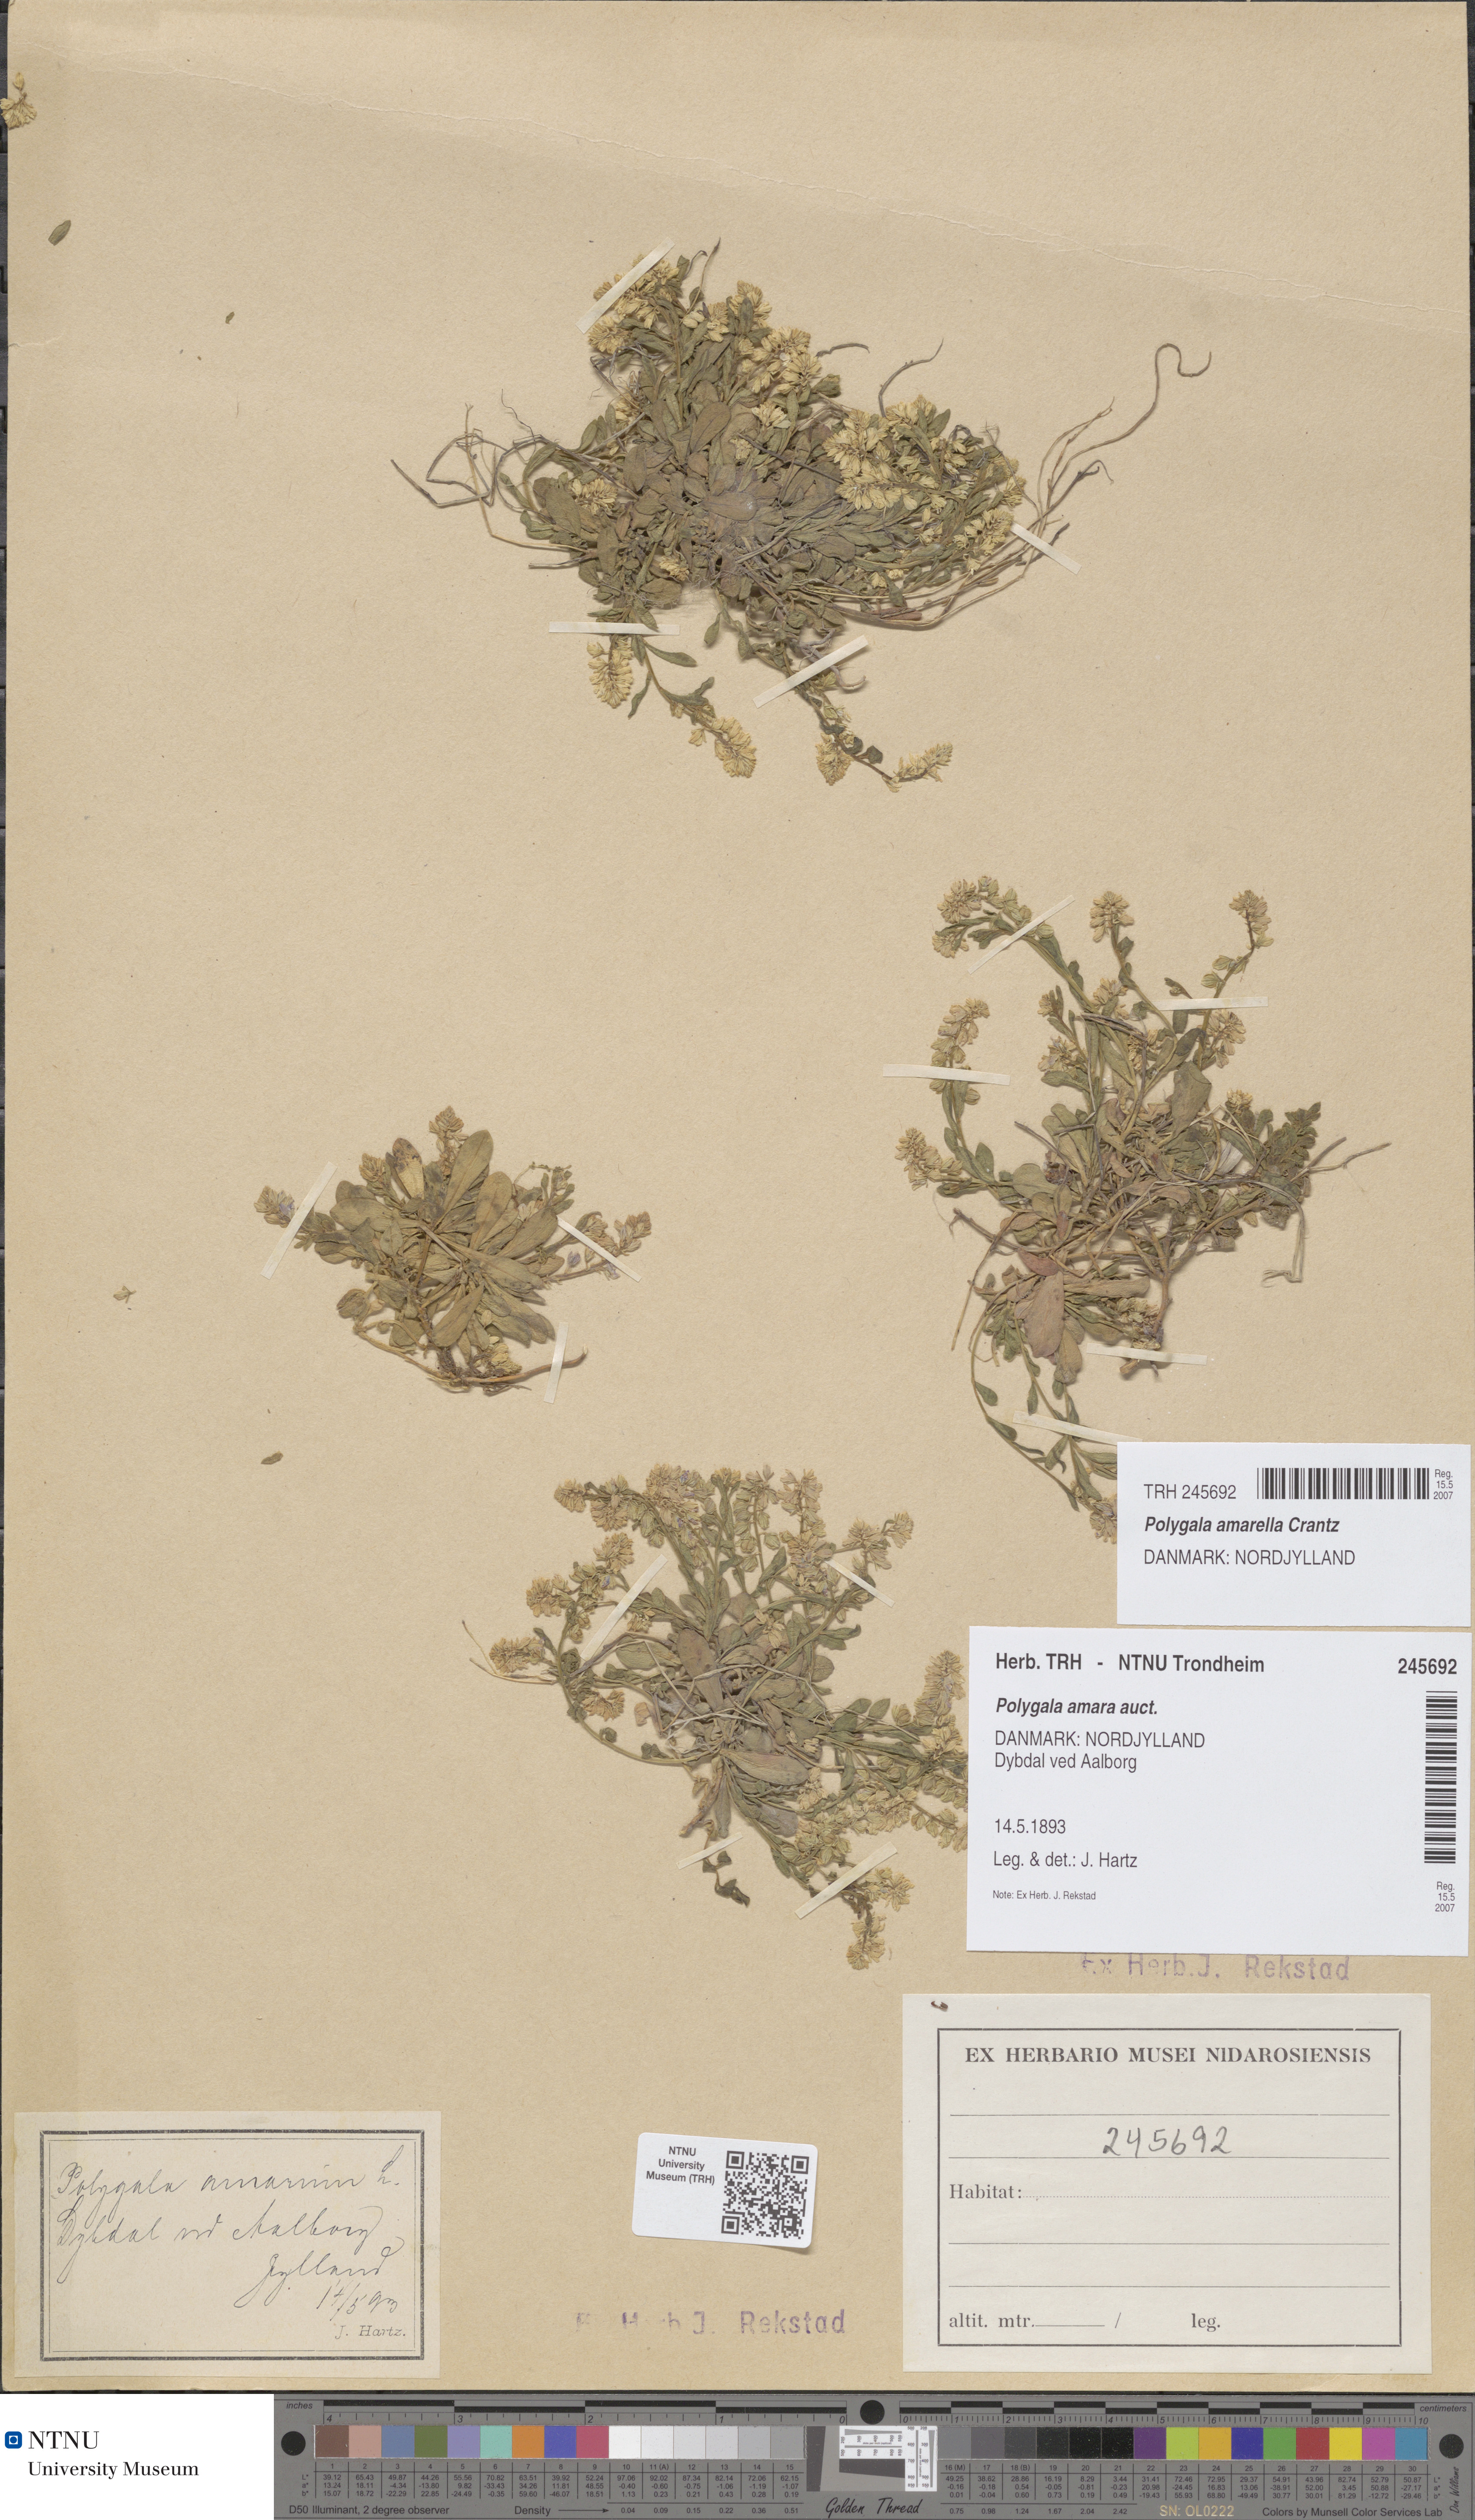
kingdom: Plantae
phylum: Tracheophyta
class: Magnoliopsida
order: Fabales
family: Polygalaceae
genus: Polygala
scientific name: Polygala amarella
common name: Dwarf milkwort
